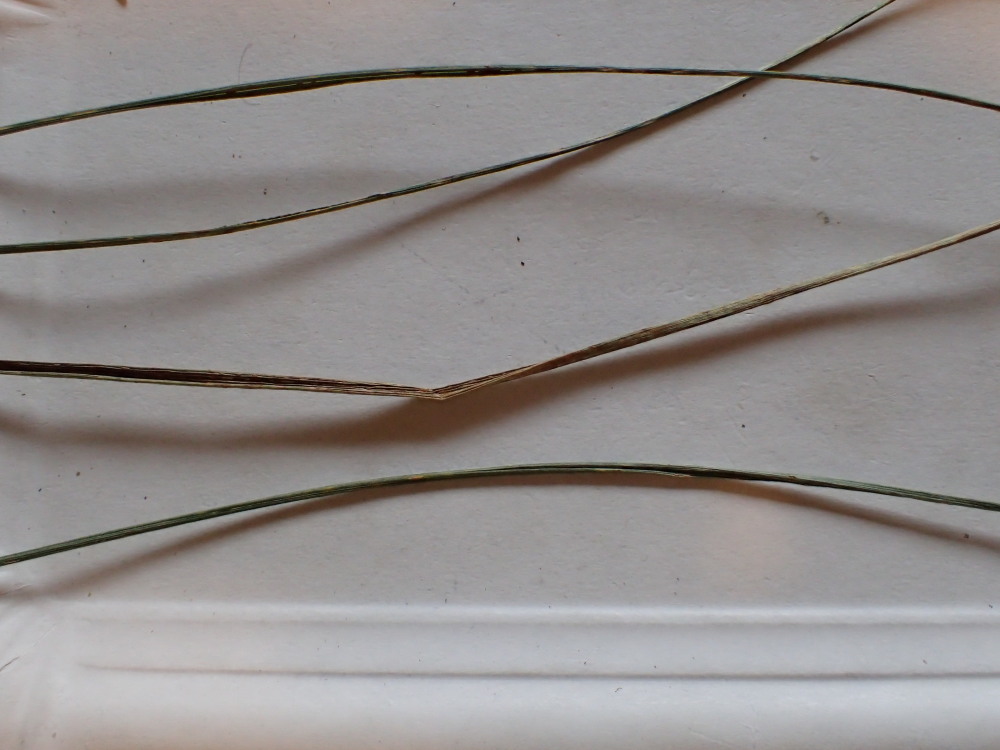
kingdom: Fungi
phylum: Basidiomycota
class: Pucciniomycetes
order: Pucciniales
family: Pucciniaceae
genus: Puccinia
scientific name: Puccinia coronata
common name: Crown rust
